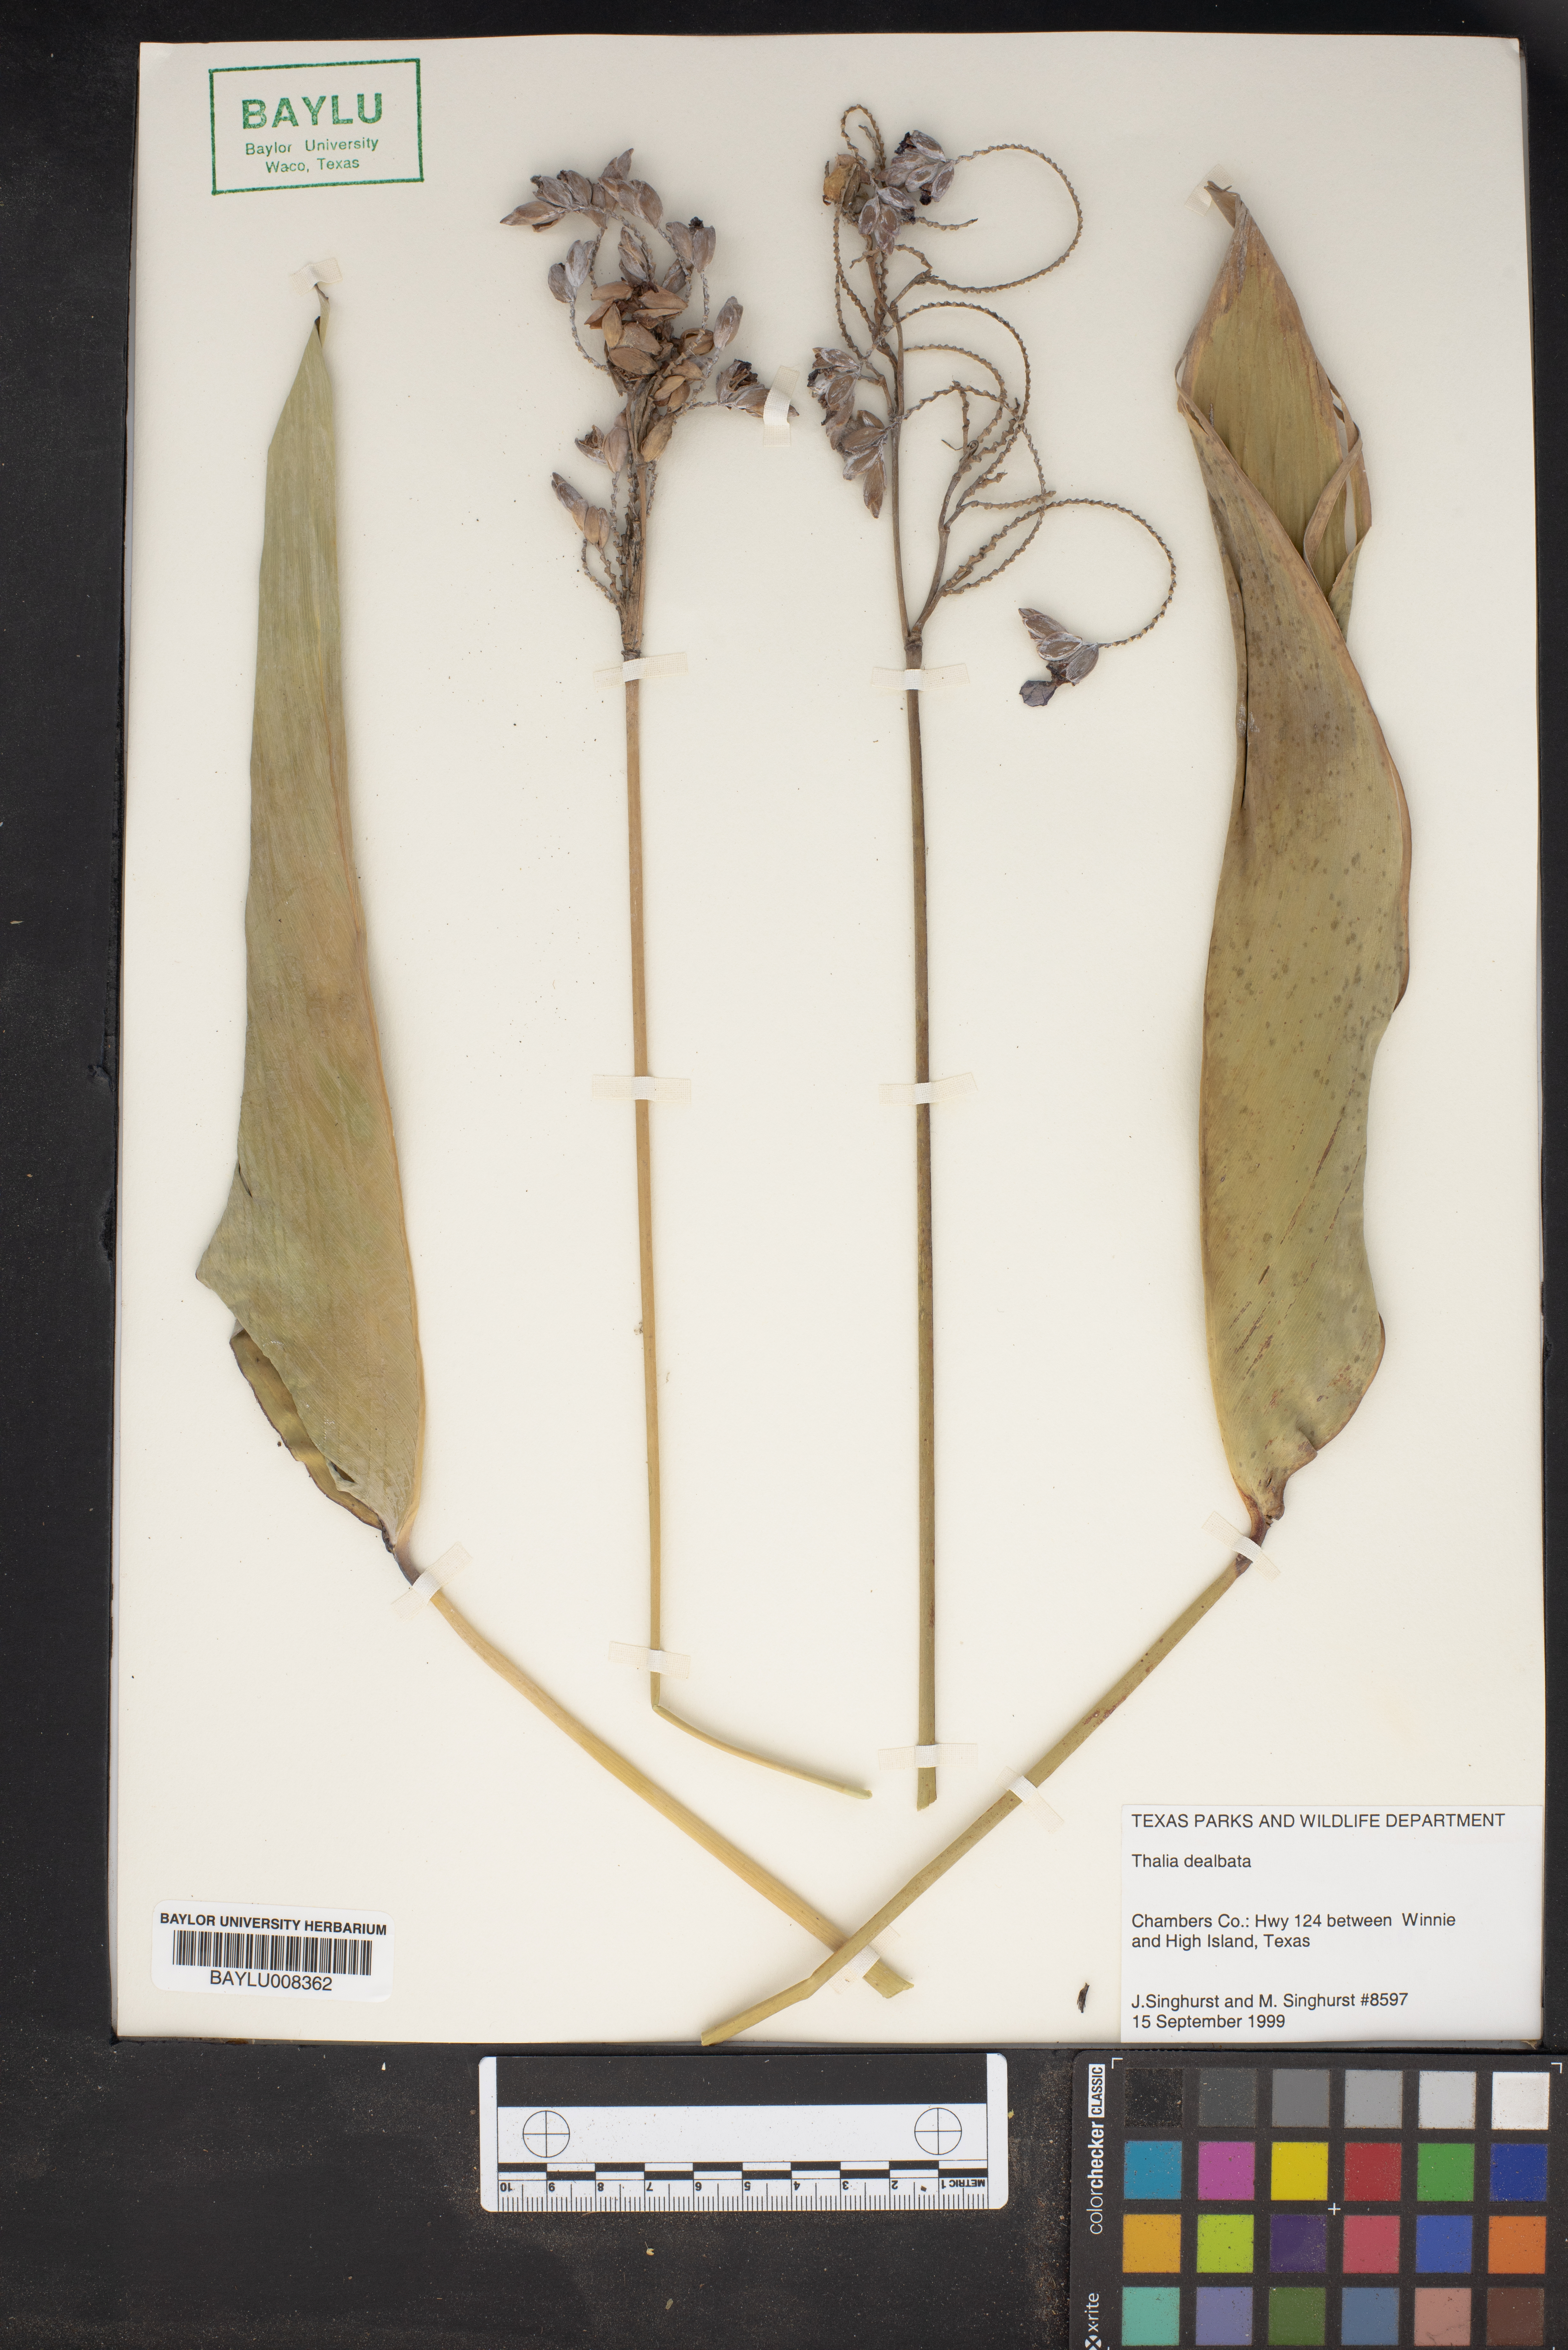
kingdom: Plantae
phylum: Tracheophyta
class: Liliopsida
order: Zingiberales
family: Marantaceae
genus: Thalia
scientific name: Thalia dealbata
